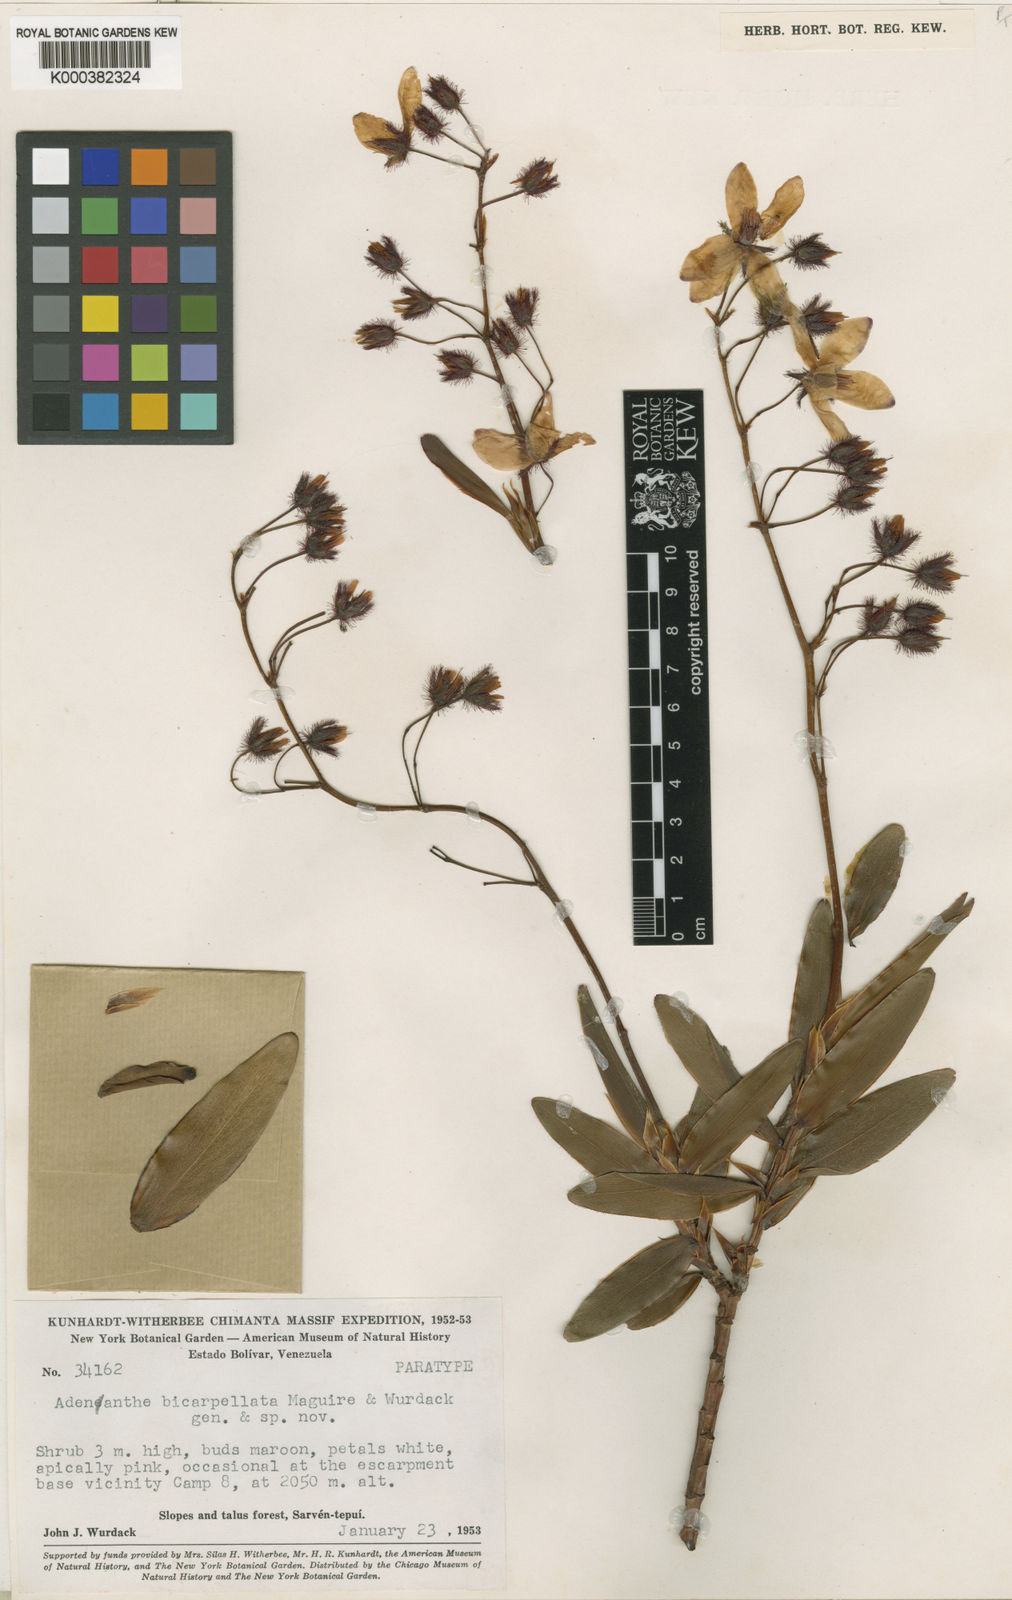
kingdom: Plantae
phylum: Tracheophyta
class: Magnoliopsida
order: Malpighiales
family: Ochnaceae
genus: Tyleria
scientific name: Tyleria bicarpellata
